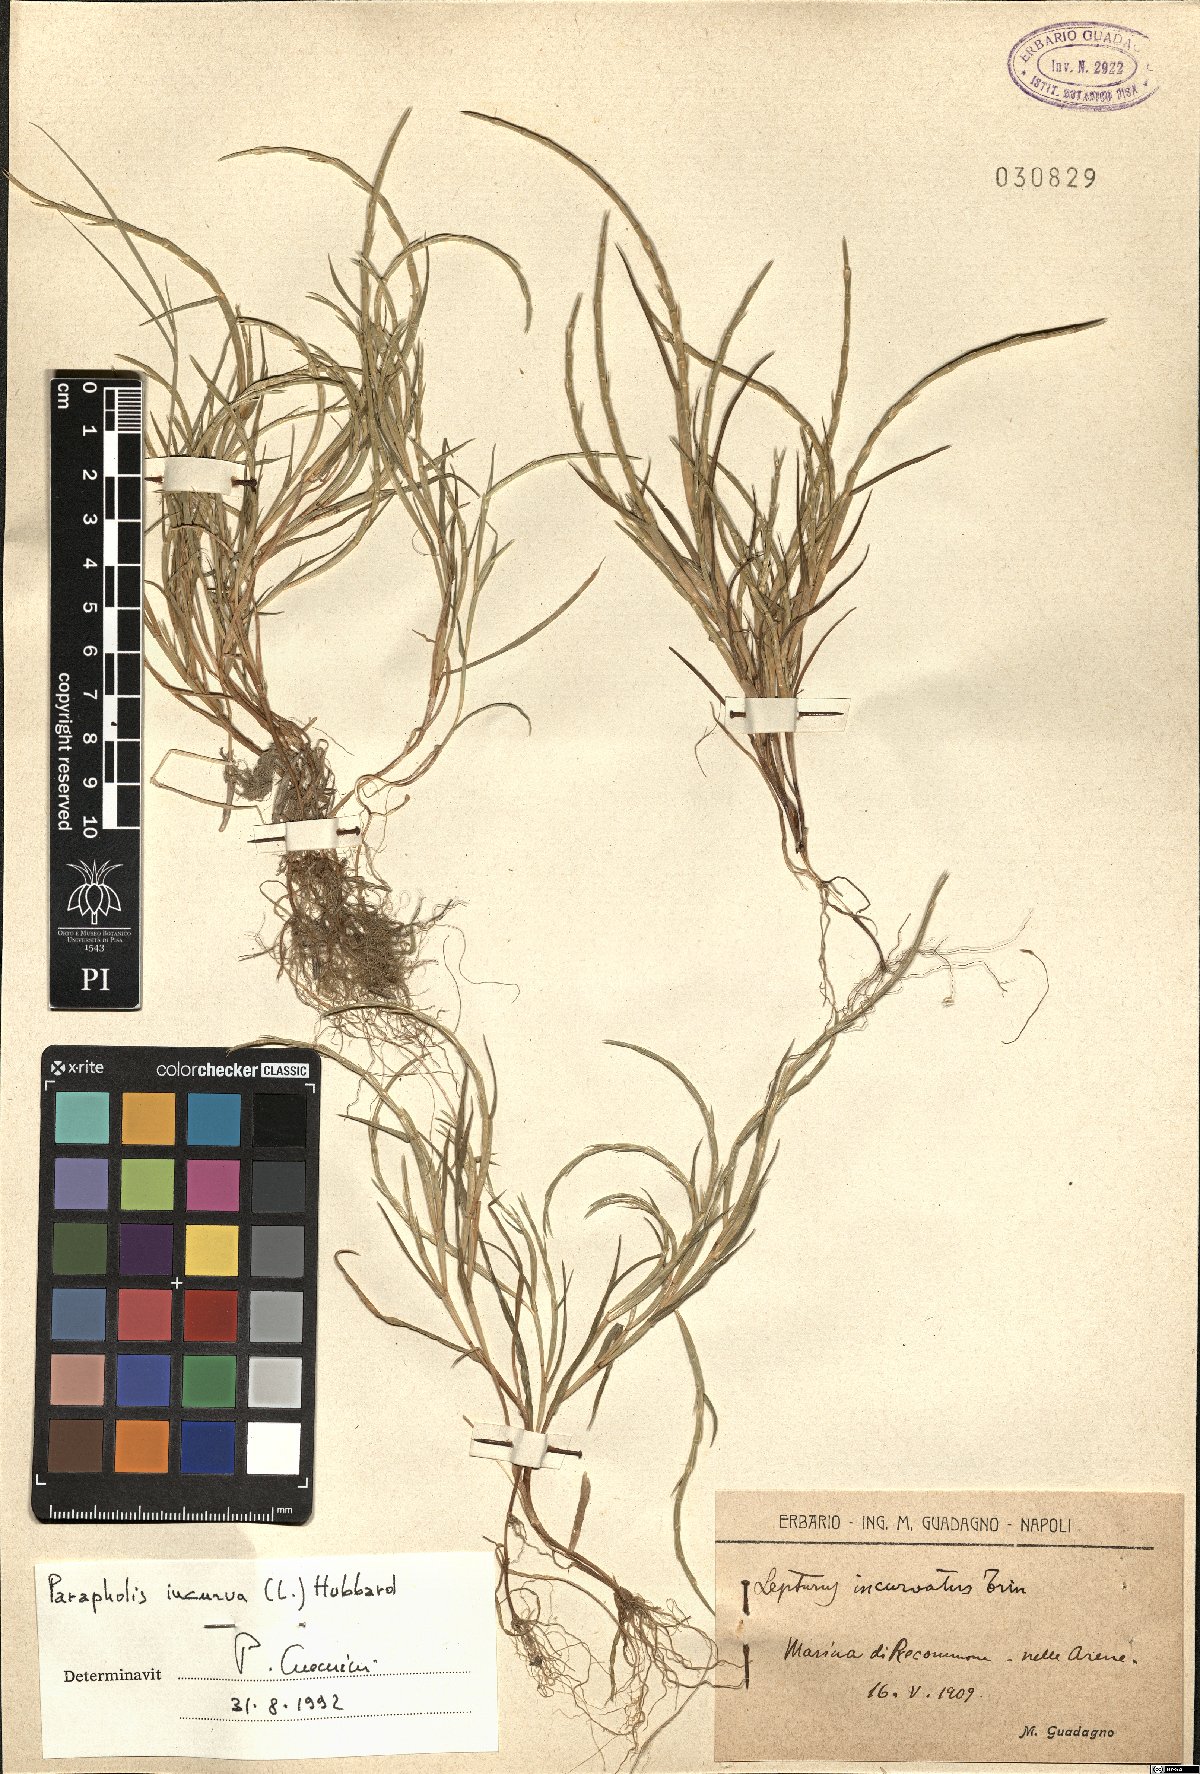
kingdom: Plantae
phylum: Tracheophyta
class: Liliopsida
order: Poales
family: Poaceae
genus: Parapholis
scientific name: Parapholis incurva
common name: Curved sicklegrass
